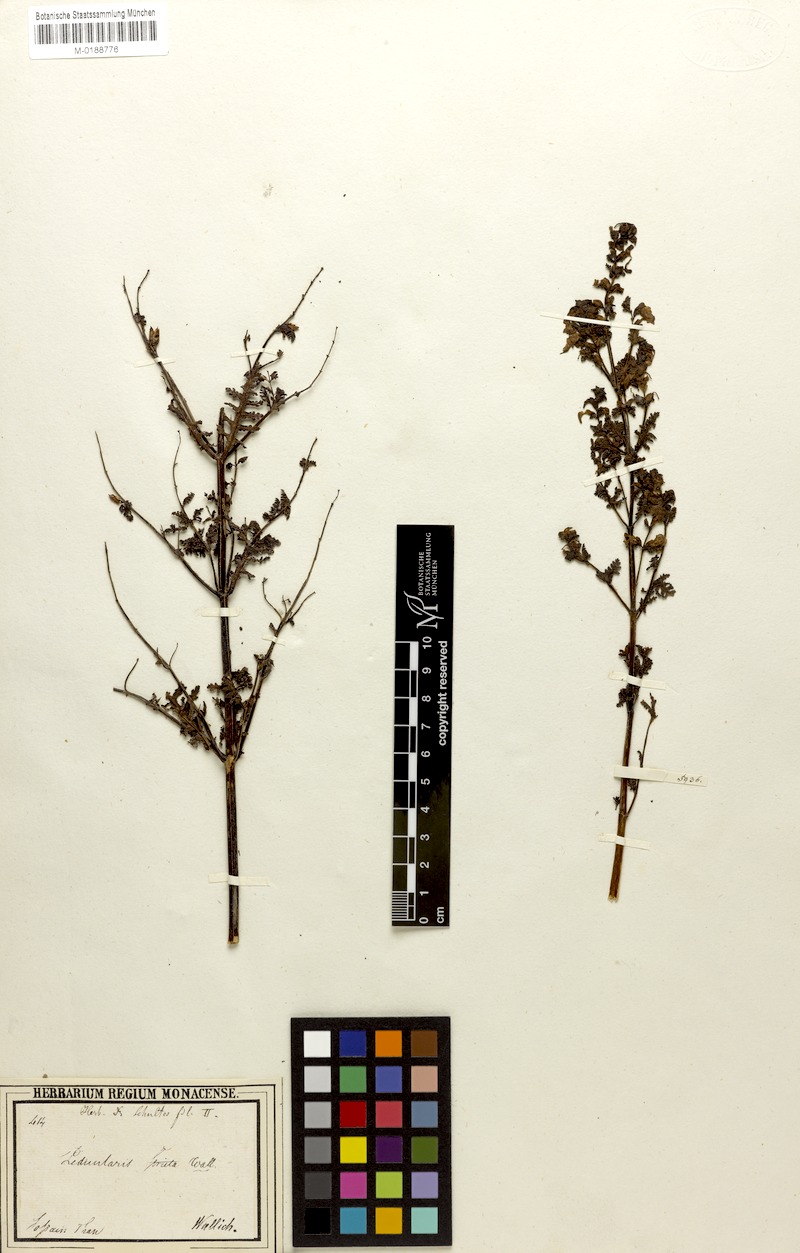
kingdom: Plantae
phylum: Tracheophyta
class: Magnoliopsida
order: Lamiales
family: Orobanchaceae
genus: Pedicularis
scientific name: Pedicularis gracilis
